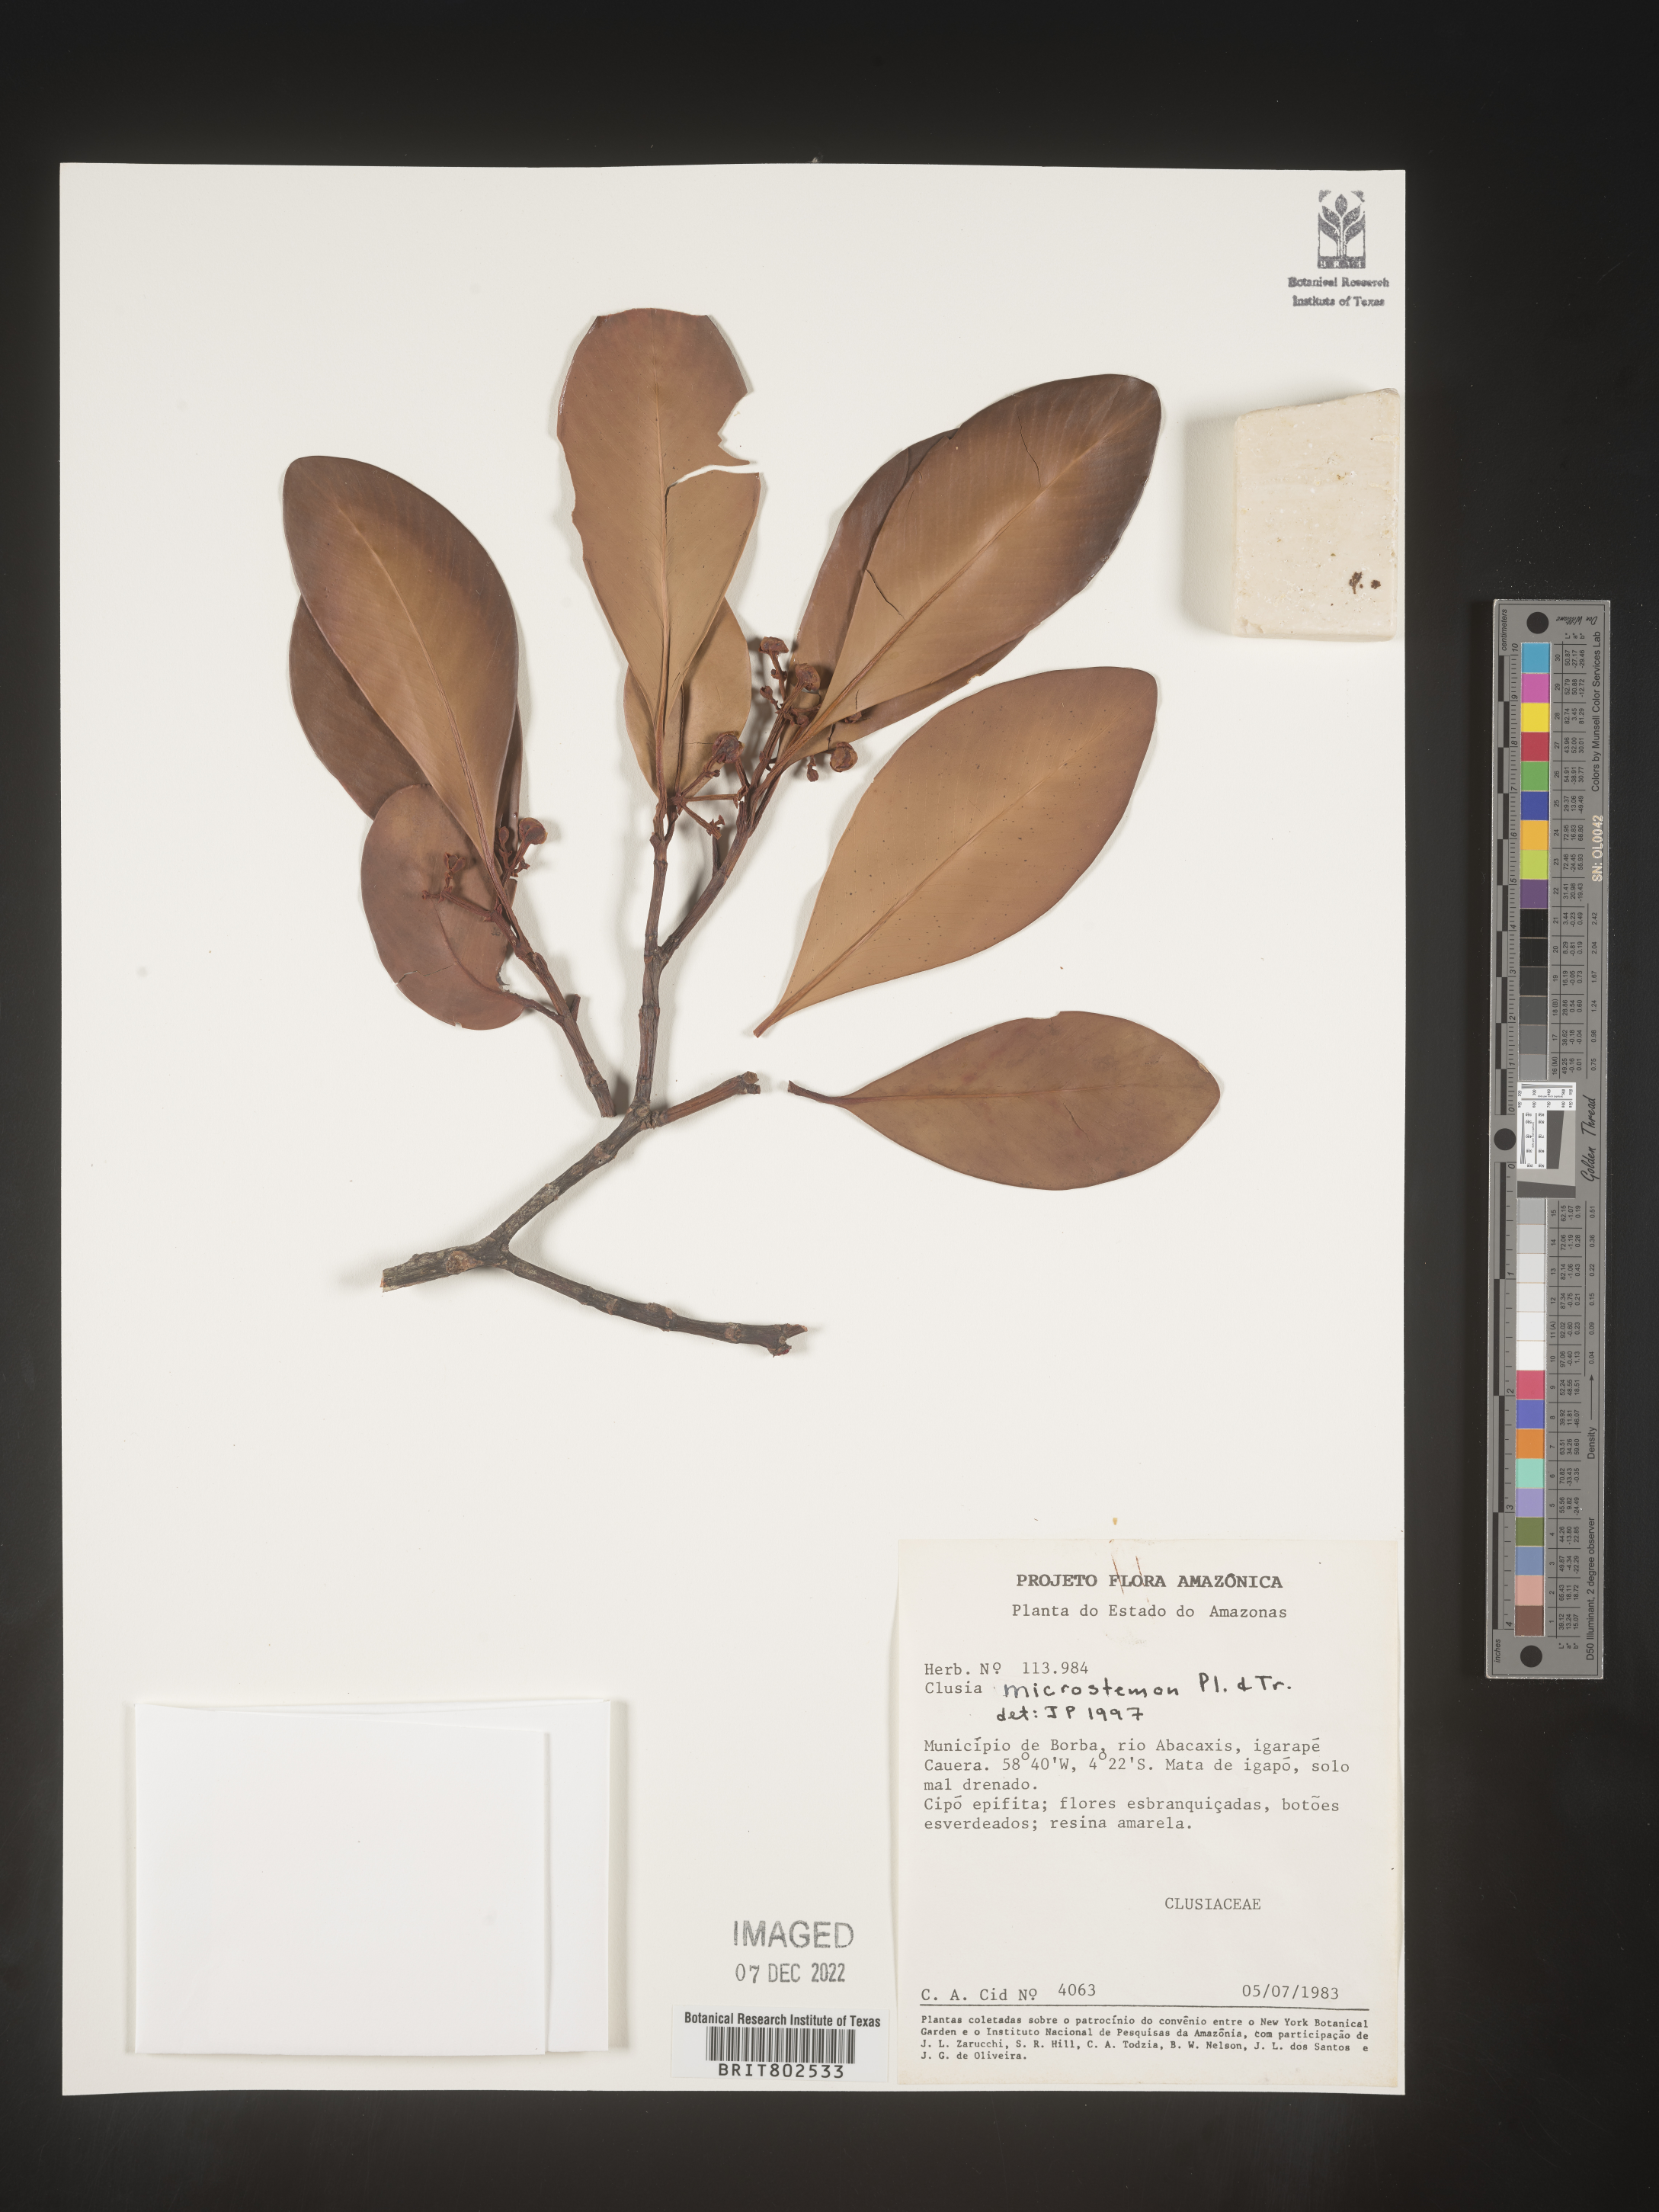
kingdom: Plantae
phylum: Tracheophyta
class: Magnoliopsida
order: Malpighiales
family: Clusiaceae
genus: Clusia
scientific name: Clusia microstemon
